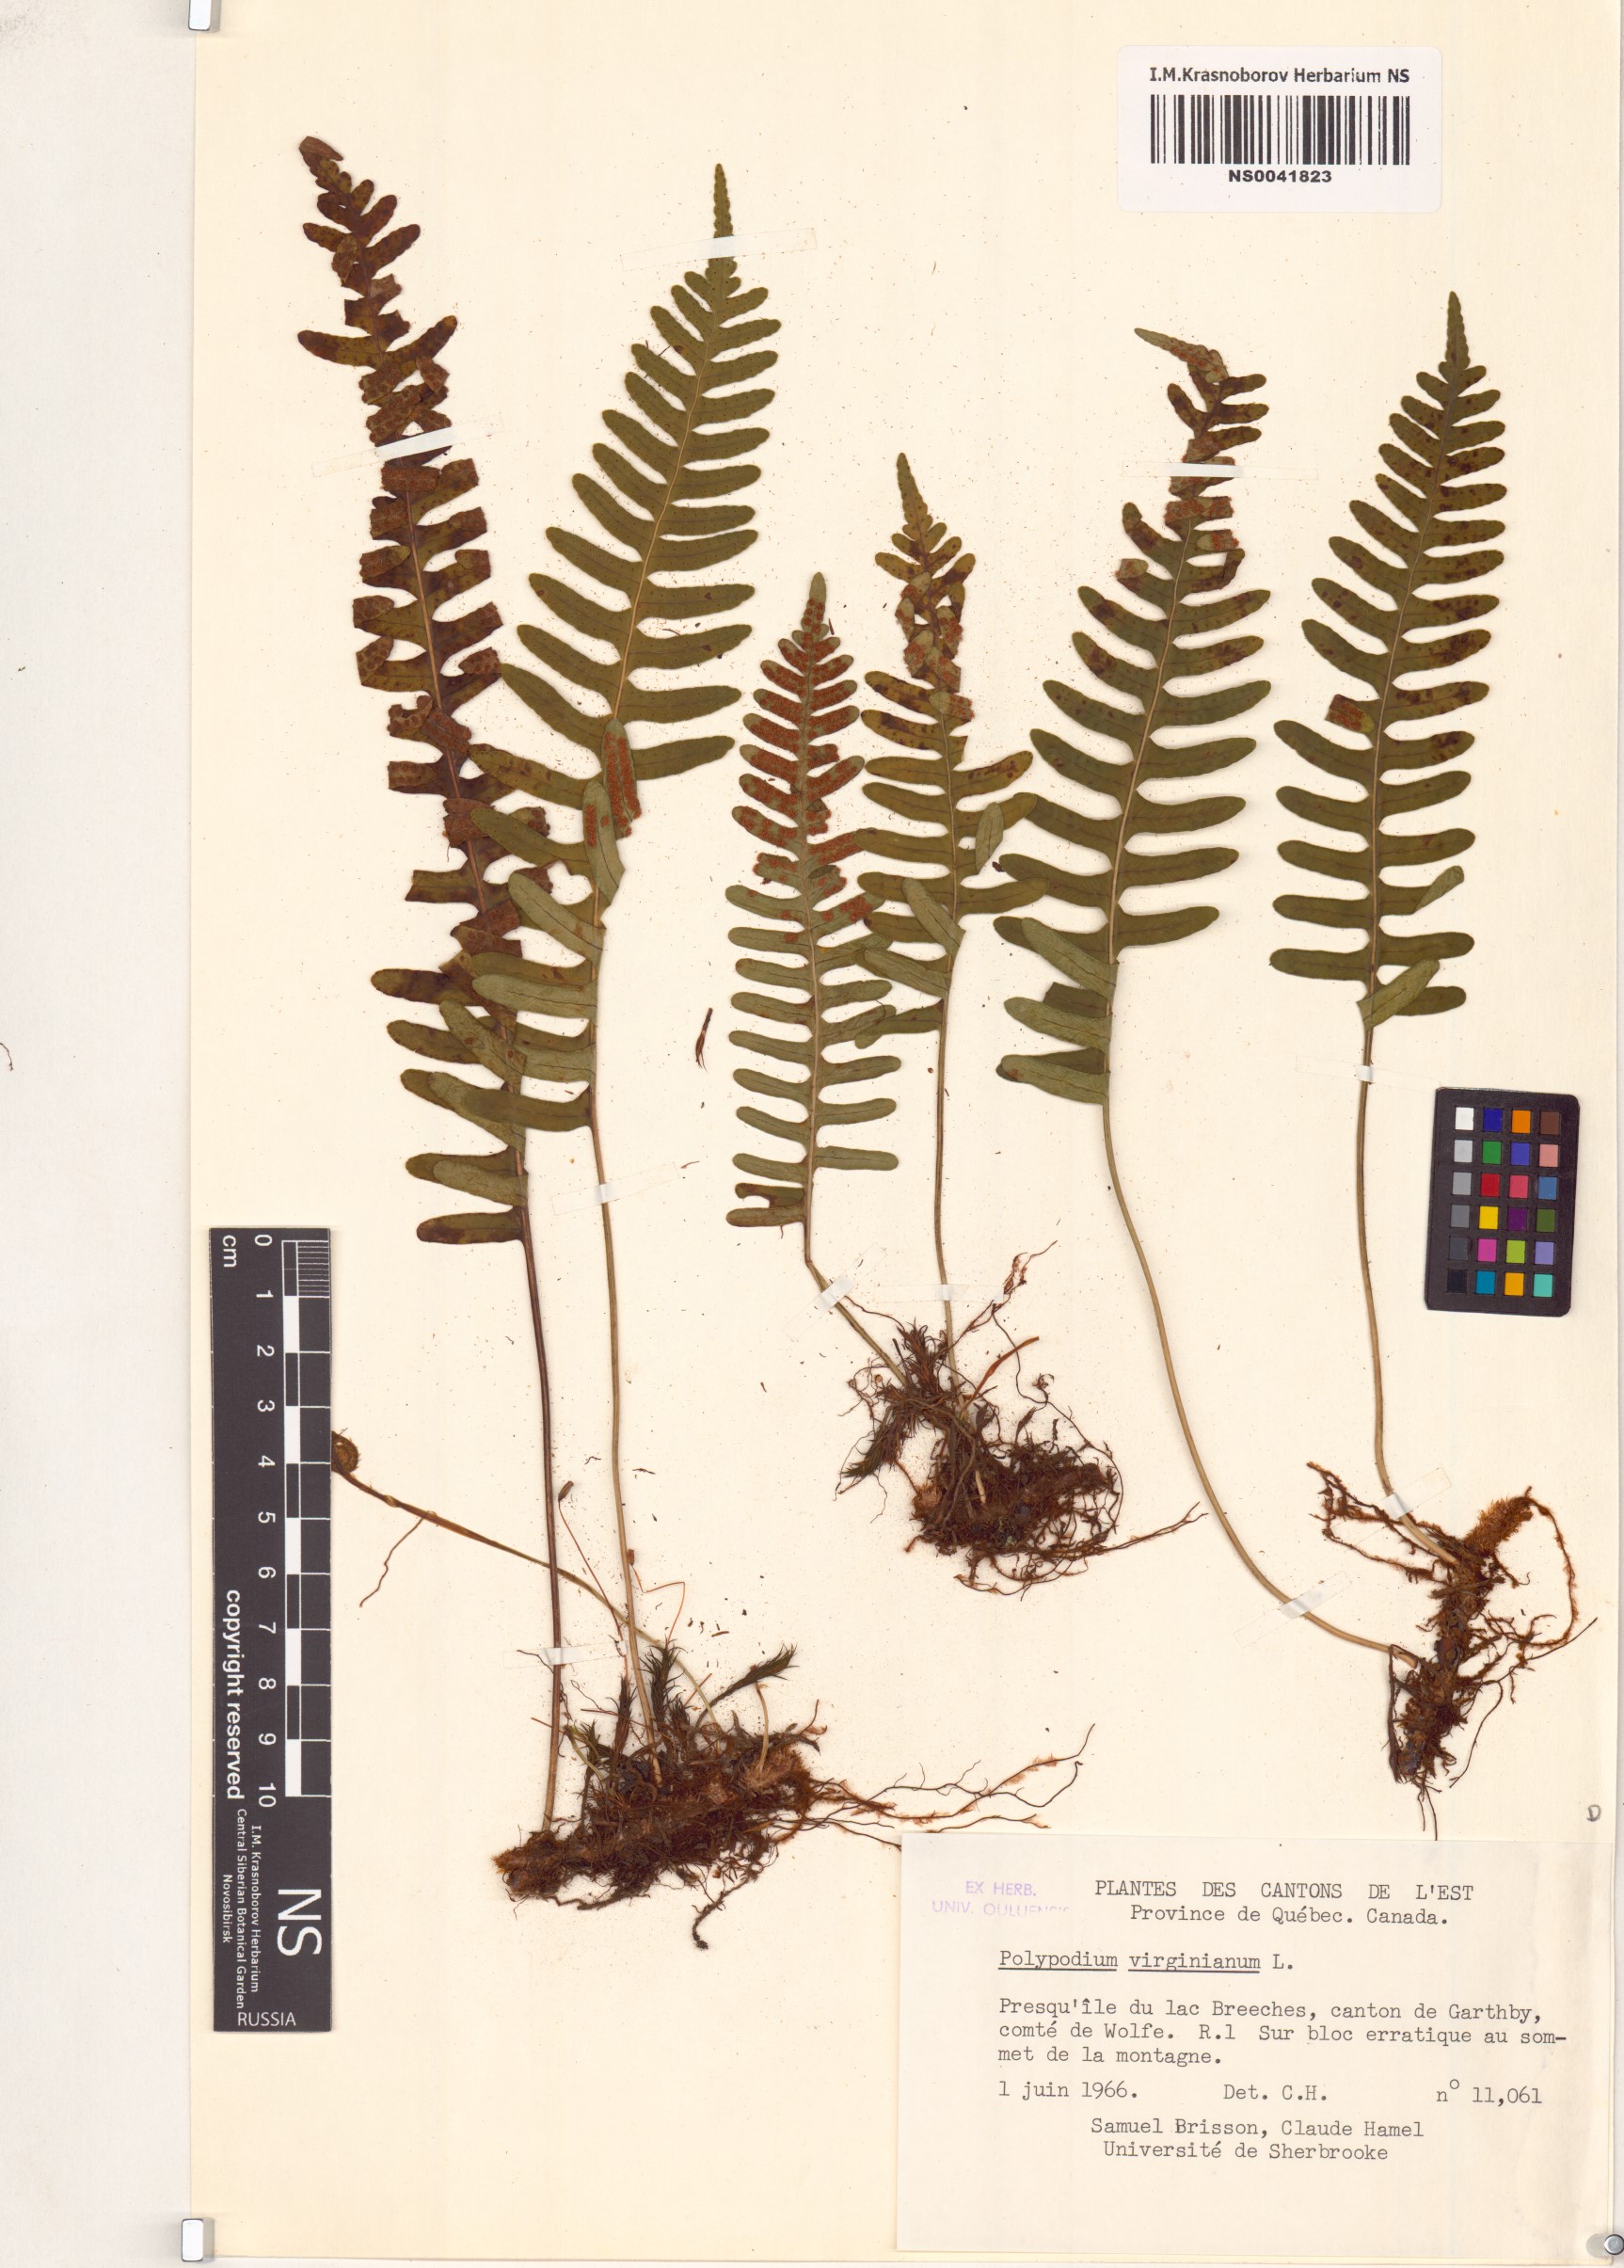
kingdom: Plantae
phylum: Tracheophyta
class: Polypodiopsida
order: Polypodiales
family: Polypodiaceae
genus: Polypodium
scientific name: Polypodium virginianum
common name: American wall fern
